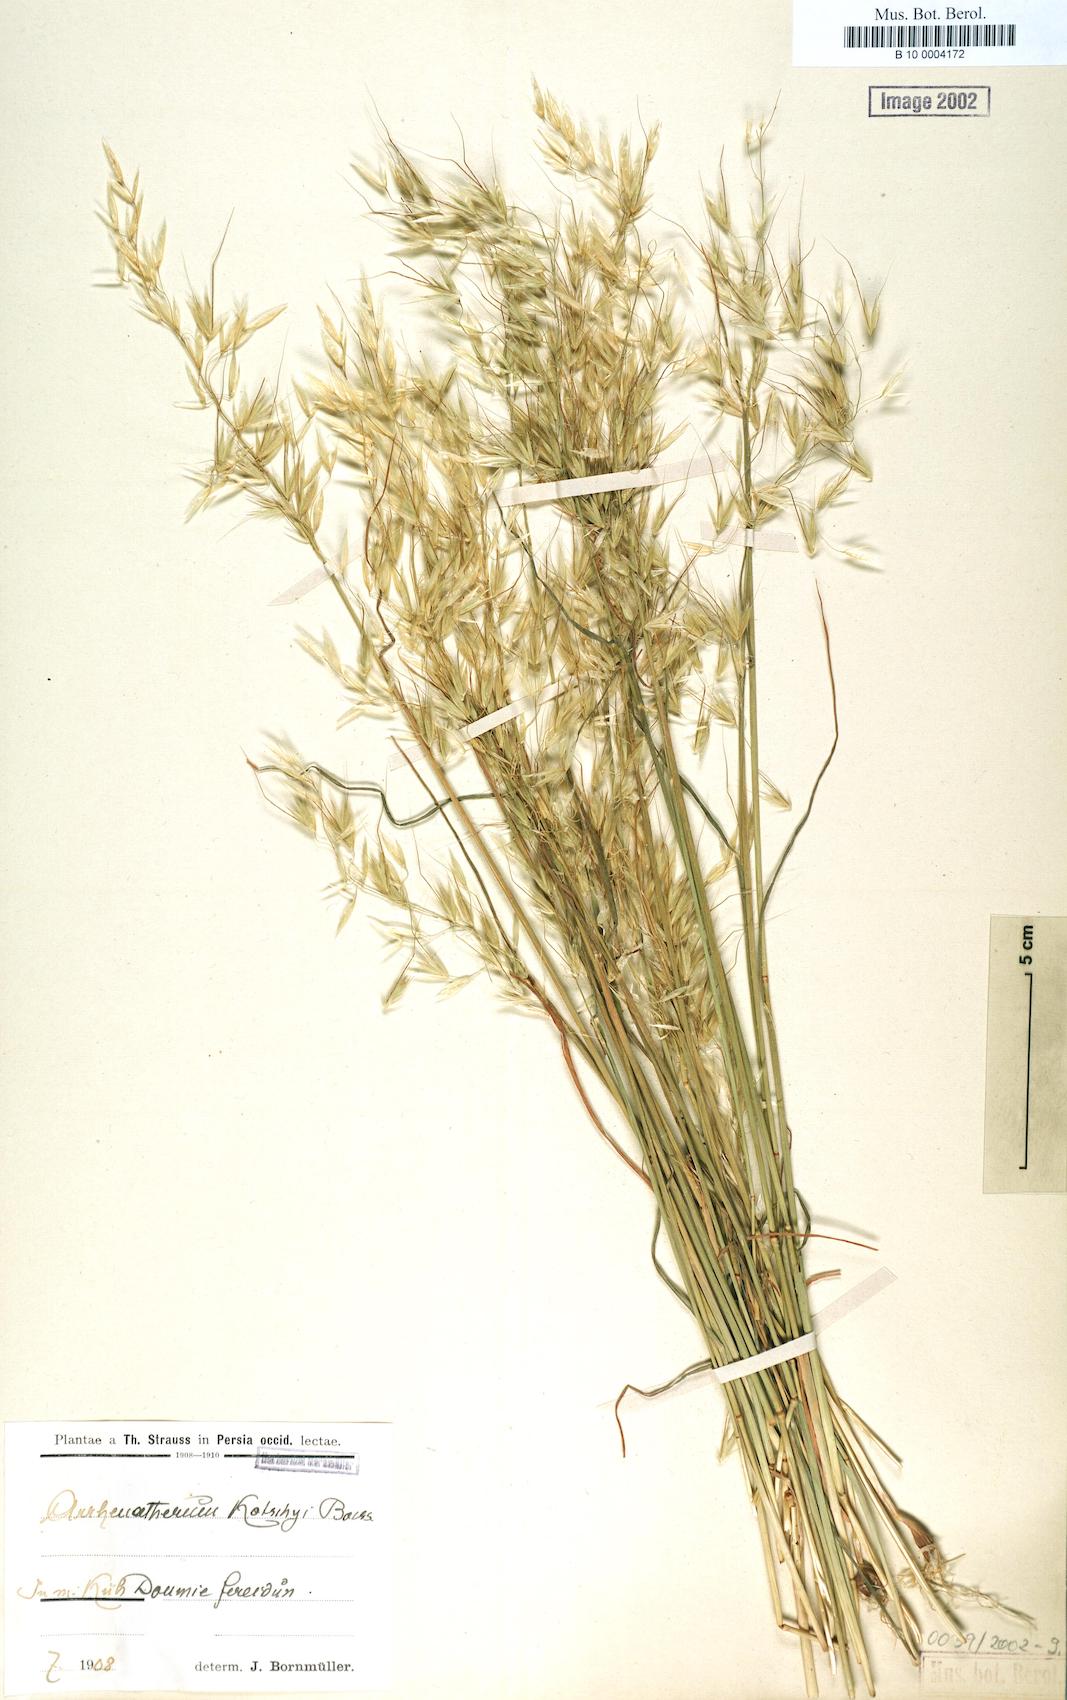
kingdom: Plantae
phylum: Tracheophyta
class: Liliopsida
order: Poales
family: Poaceae
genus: Arrhenatherum
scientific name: Arrhenatherum kotschyi
